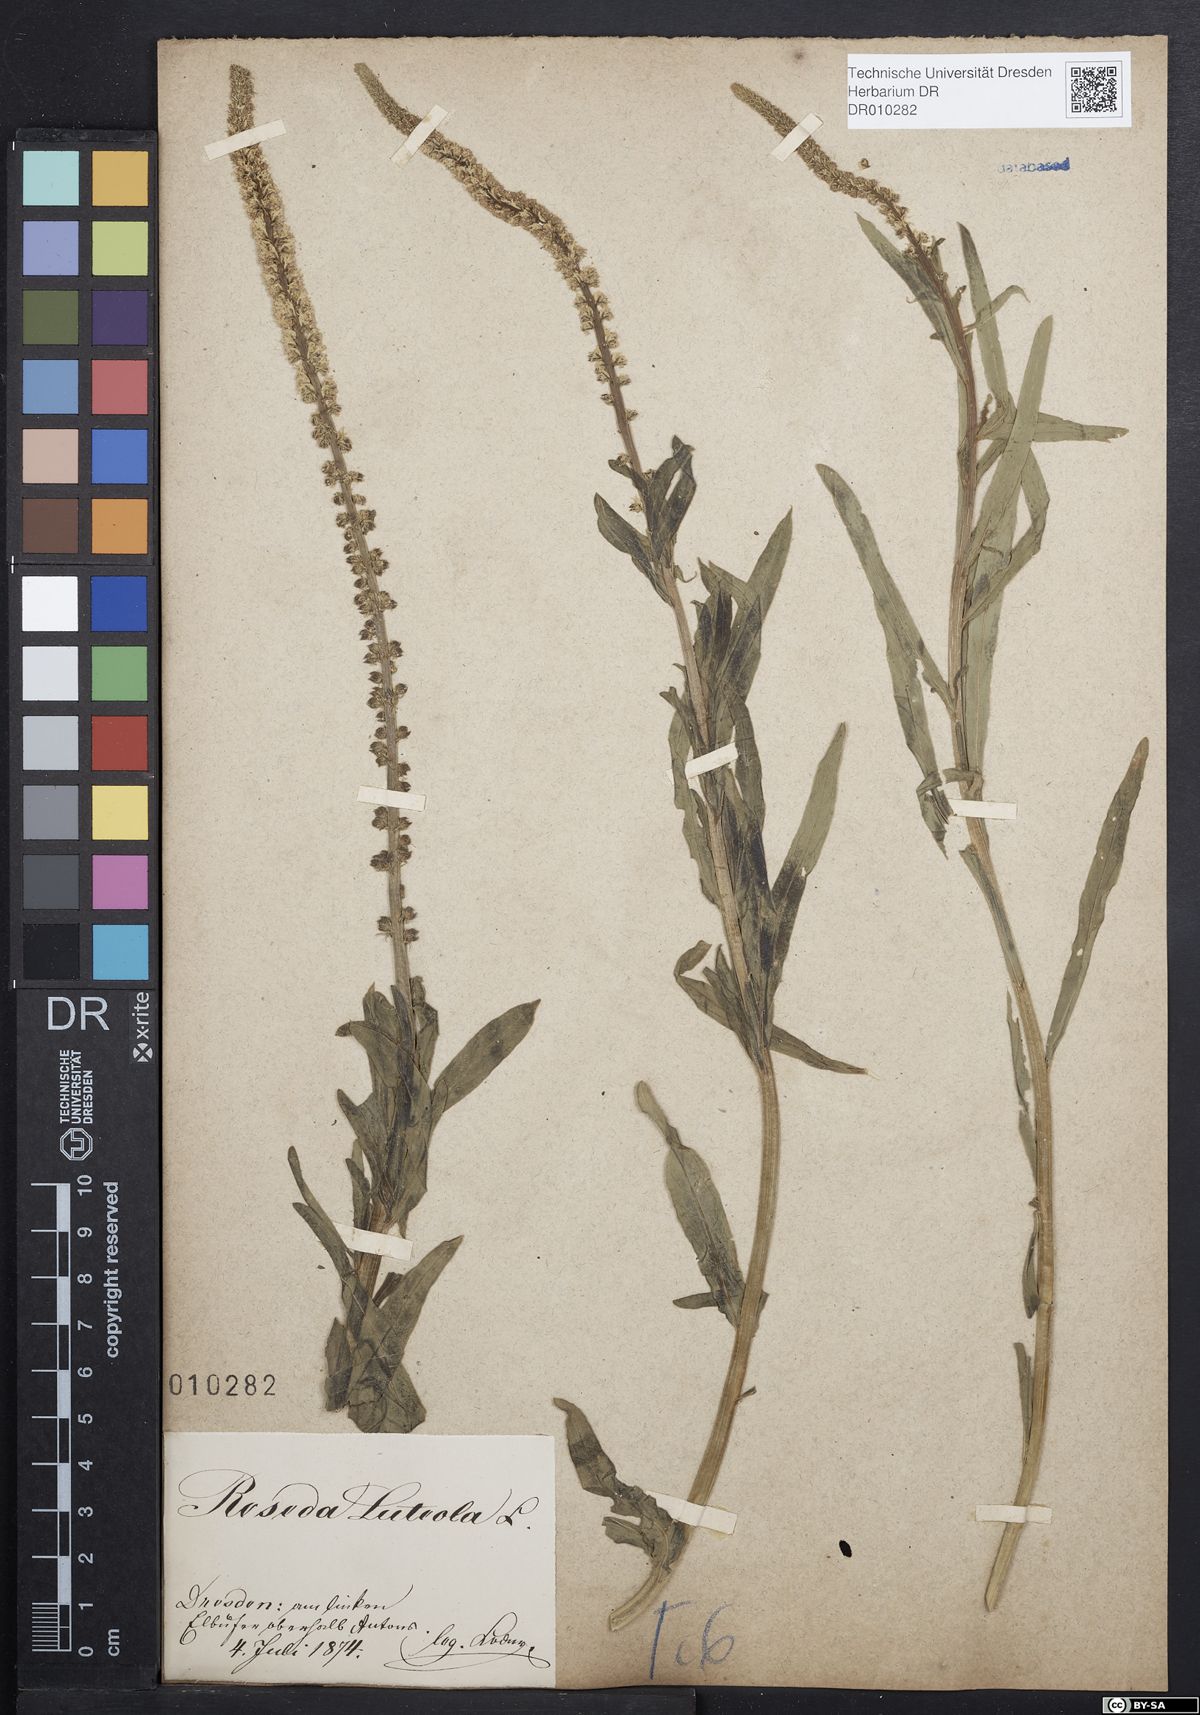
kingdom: Plantae
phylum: Tracheophyta
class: Magnoliopsida
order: Brassicales
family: Resedaceae
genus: Reseda
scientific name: Reseda luteola
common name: Weld
